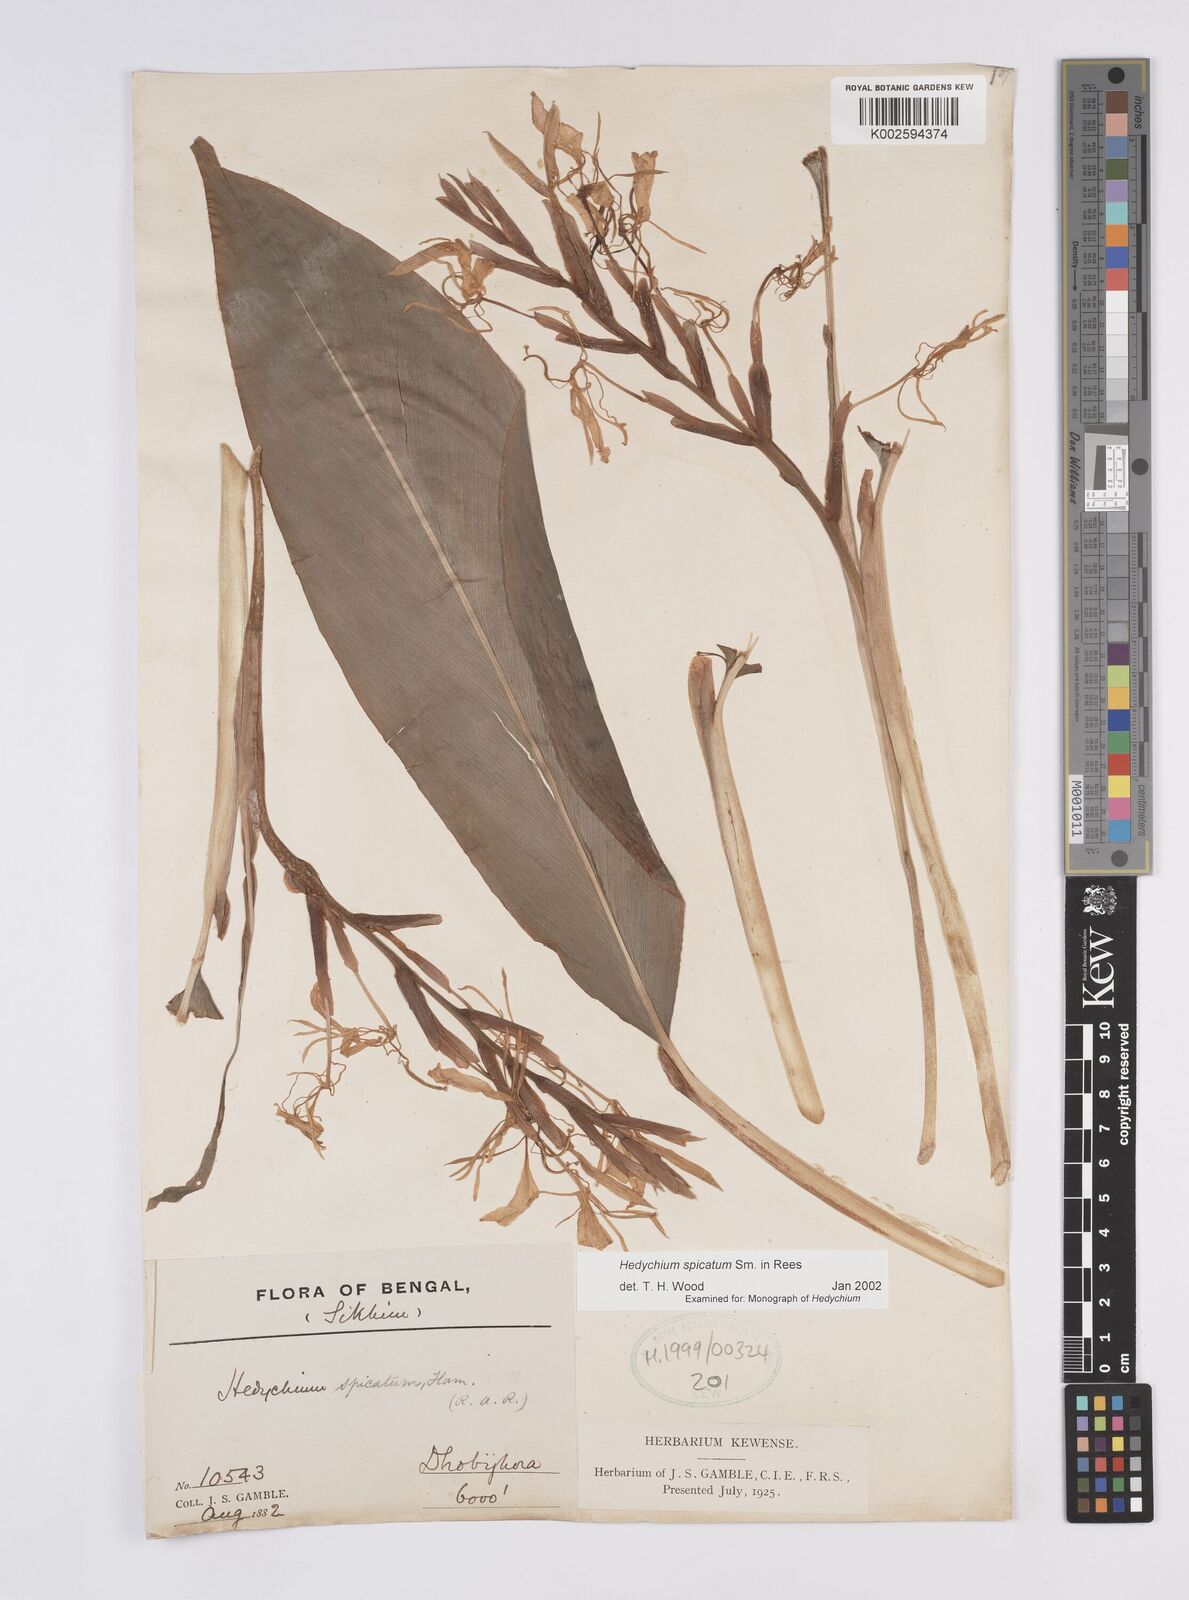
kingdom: Plantae
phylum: Tracheophyta
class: Liliopsida
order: Zingiberales
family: Zingiberaceae
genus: Hedychium
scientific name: Hedychium spicatum
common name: Spiked ginger-lily
